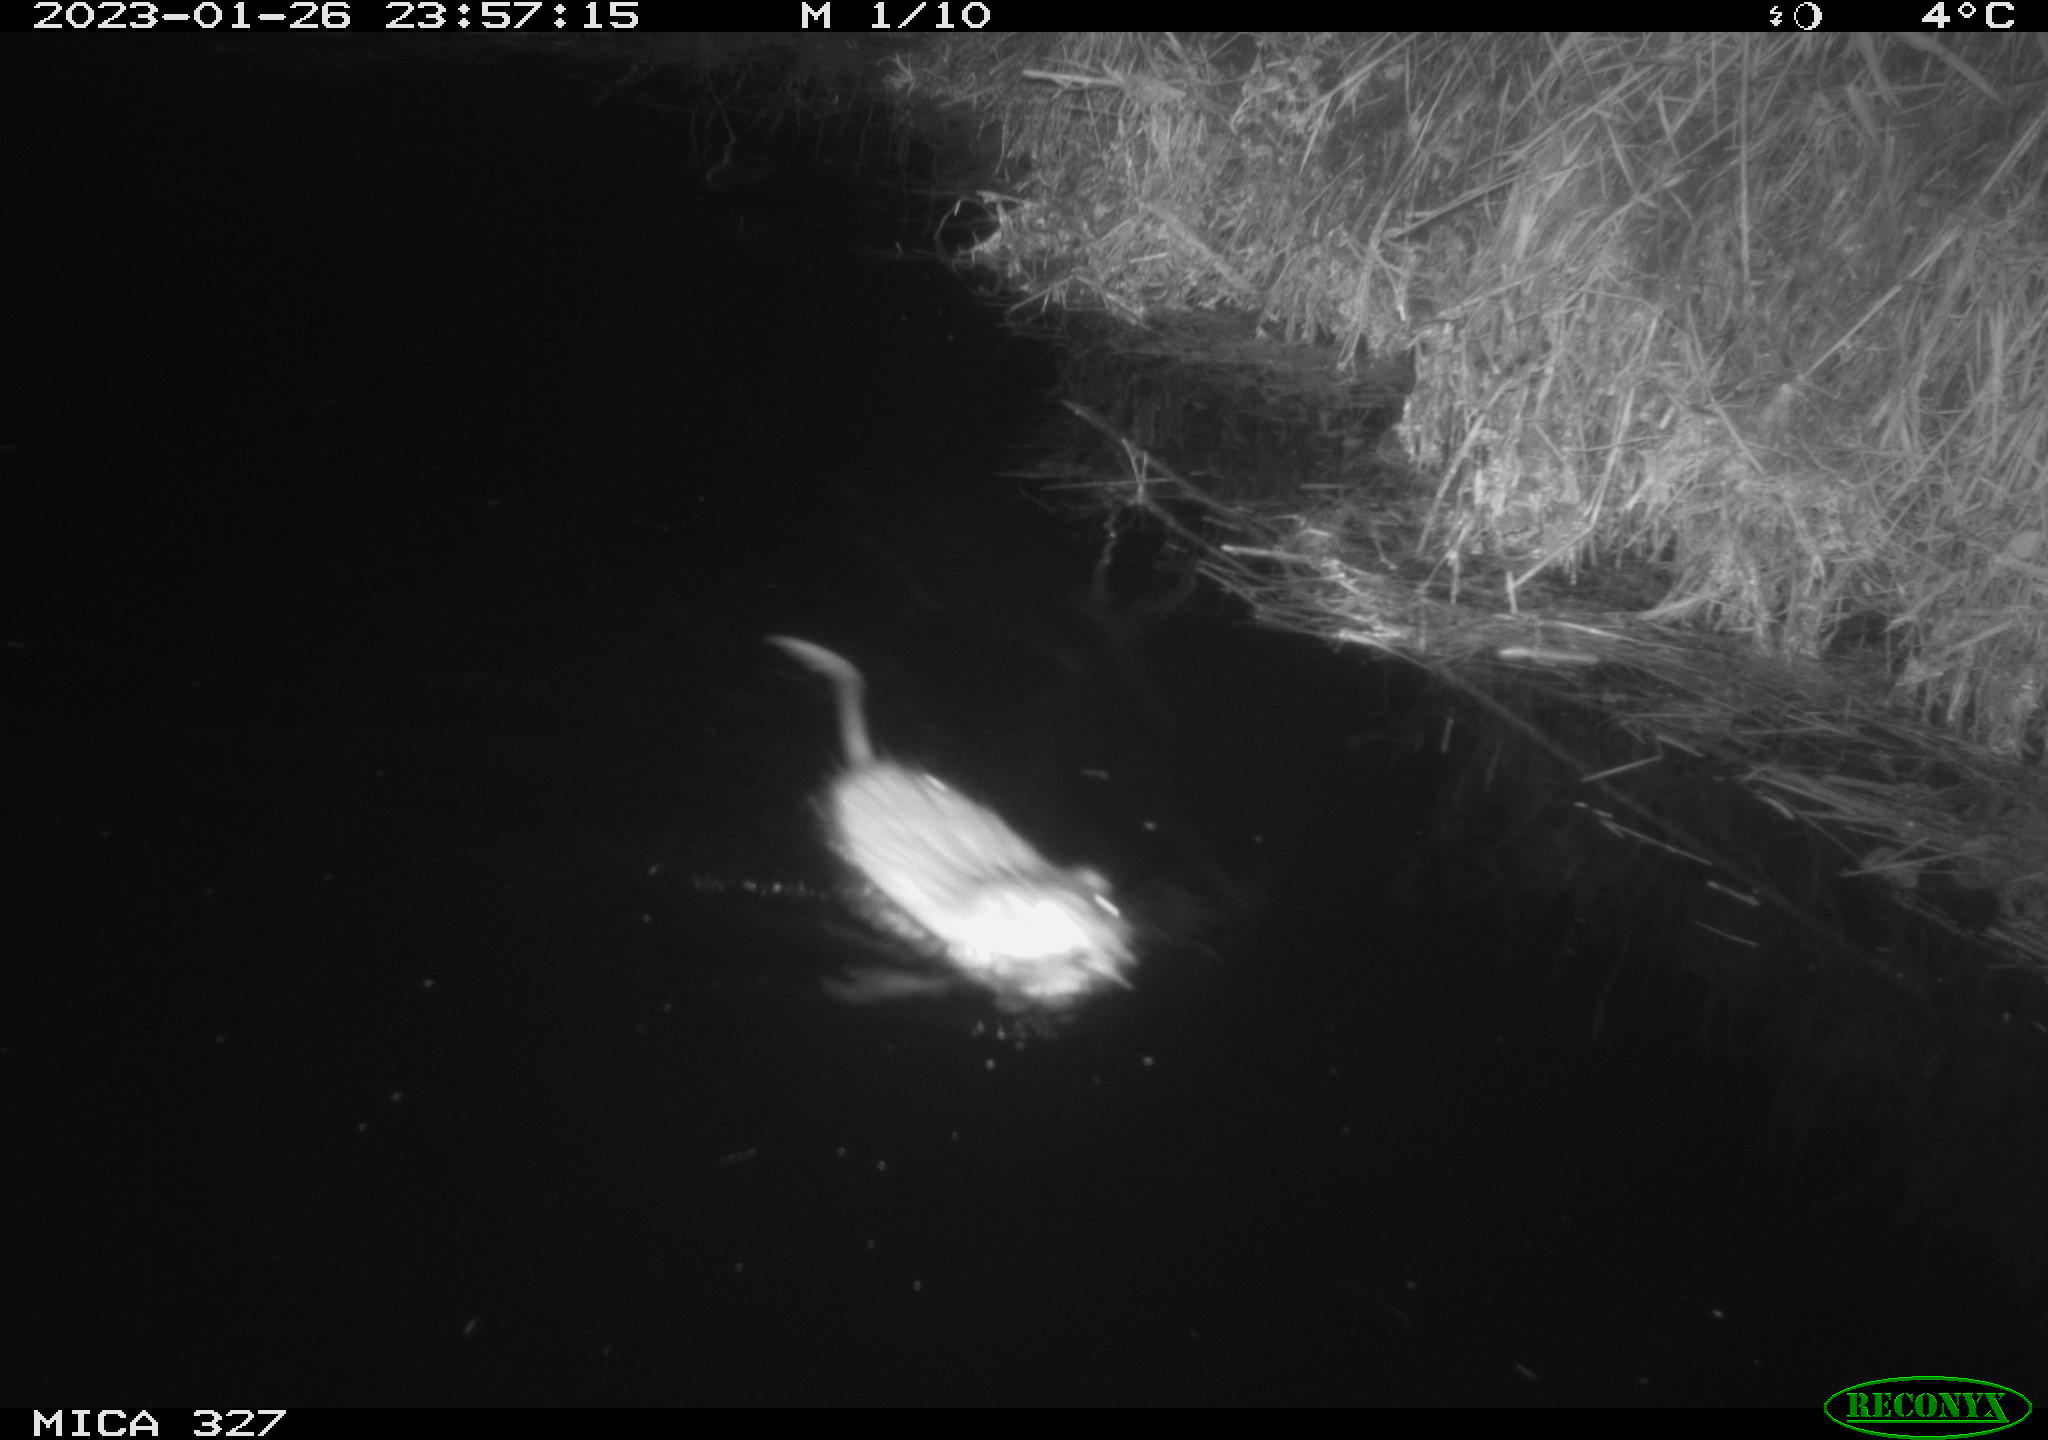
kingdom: Animalia
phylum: Chordata
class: Mammalia
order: Rodentia
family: Cricetidae
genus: Ondatra
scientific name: Ondatra zibethicus
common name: Muskrat
